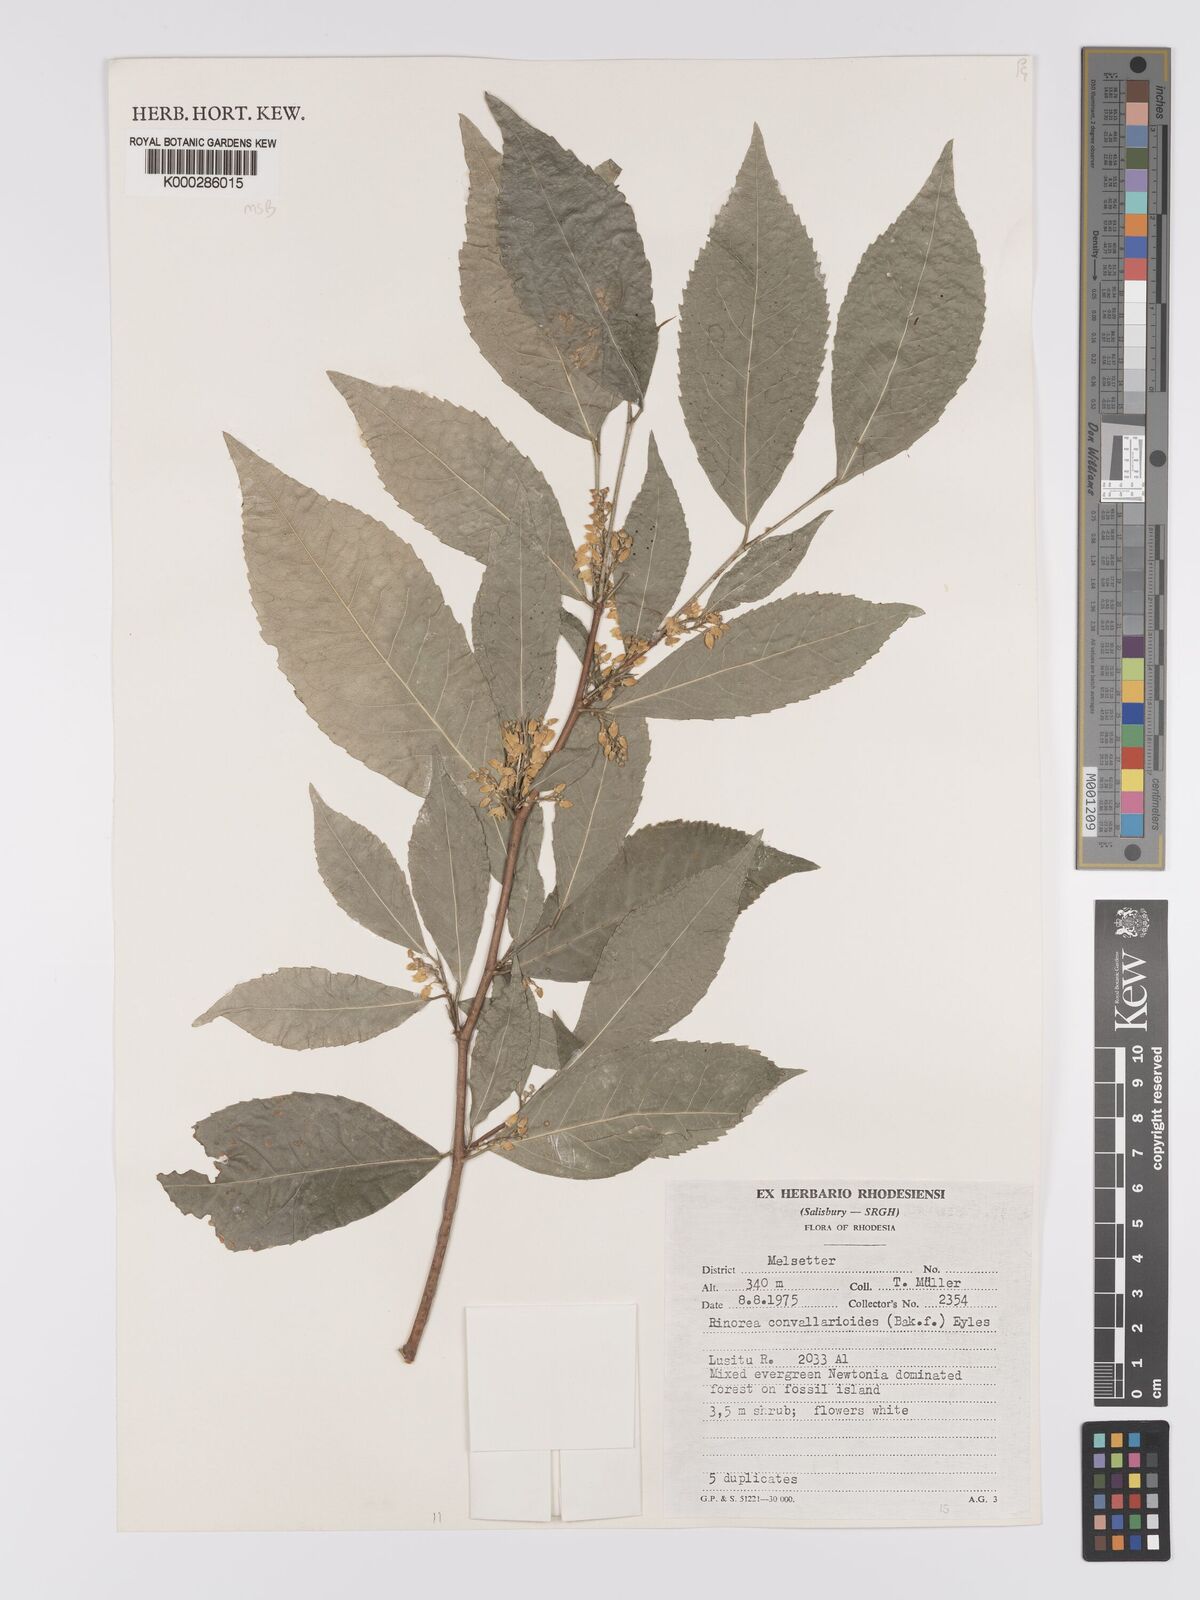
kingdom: Plantae
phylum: Tracheophyta
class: Magnoliopsida
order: Malpighiales
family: Violaceae
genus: Rinorea
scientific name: Rinorea convallarioides
